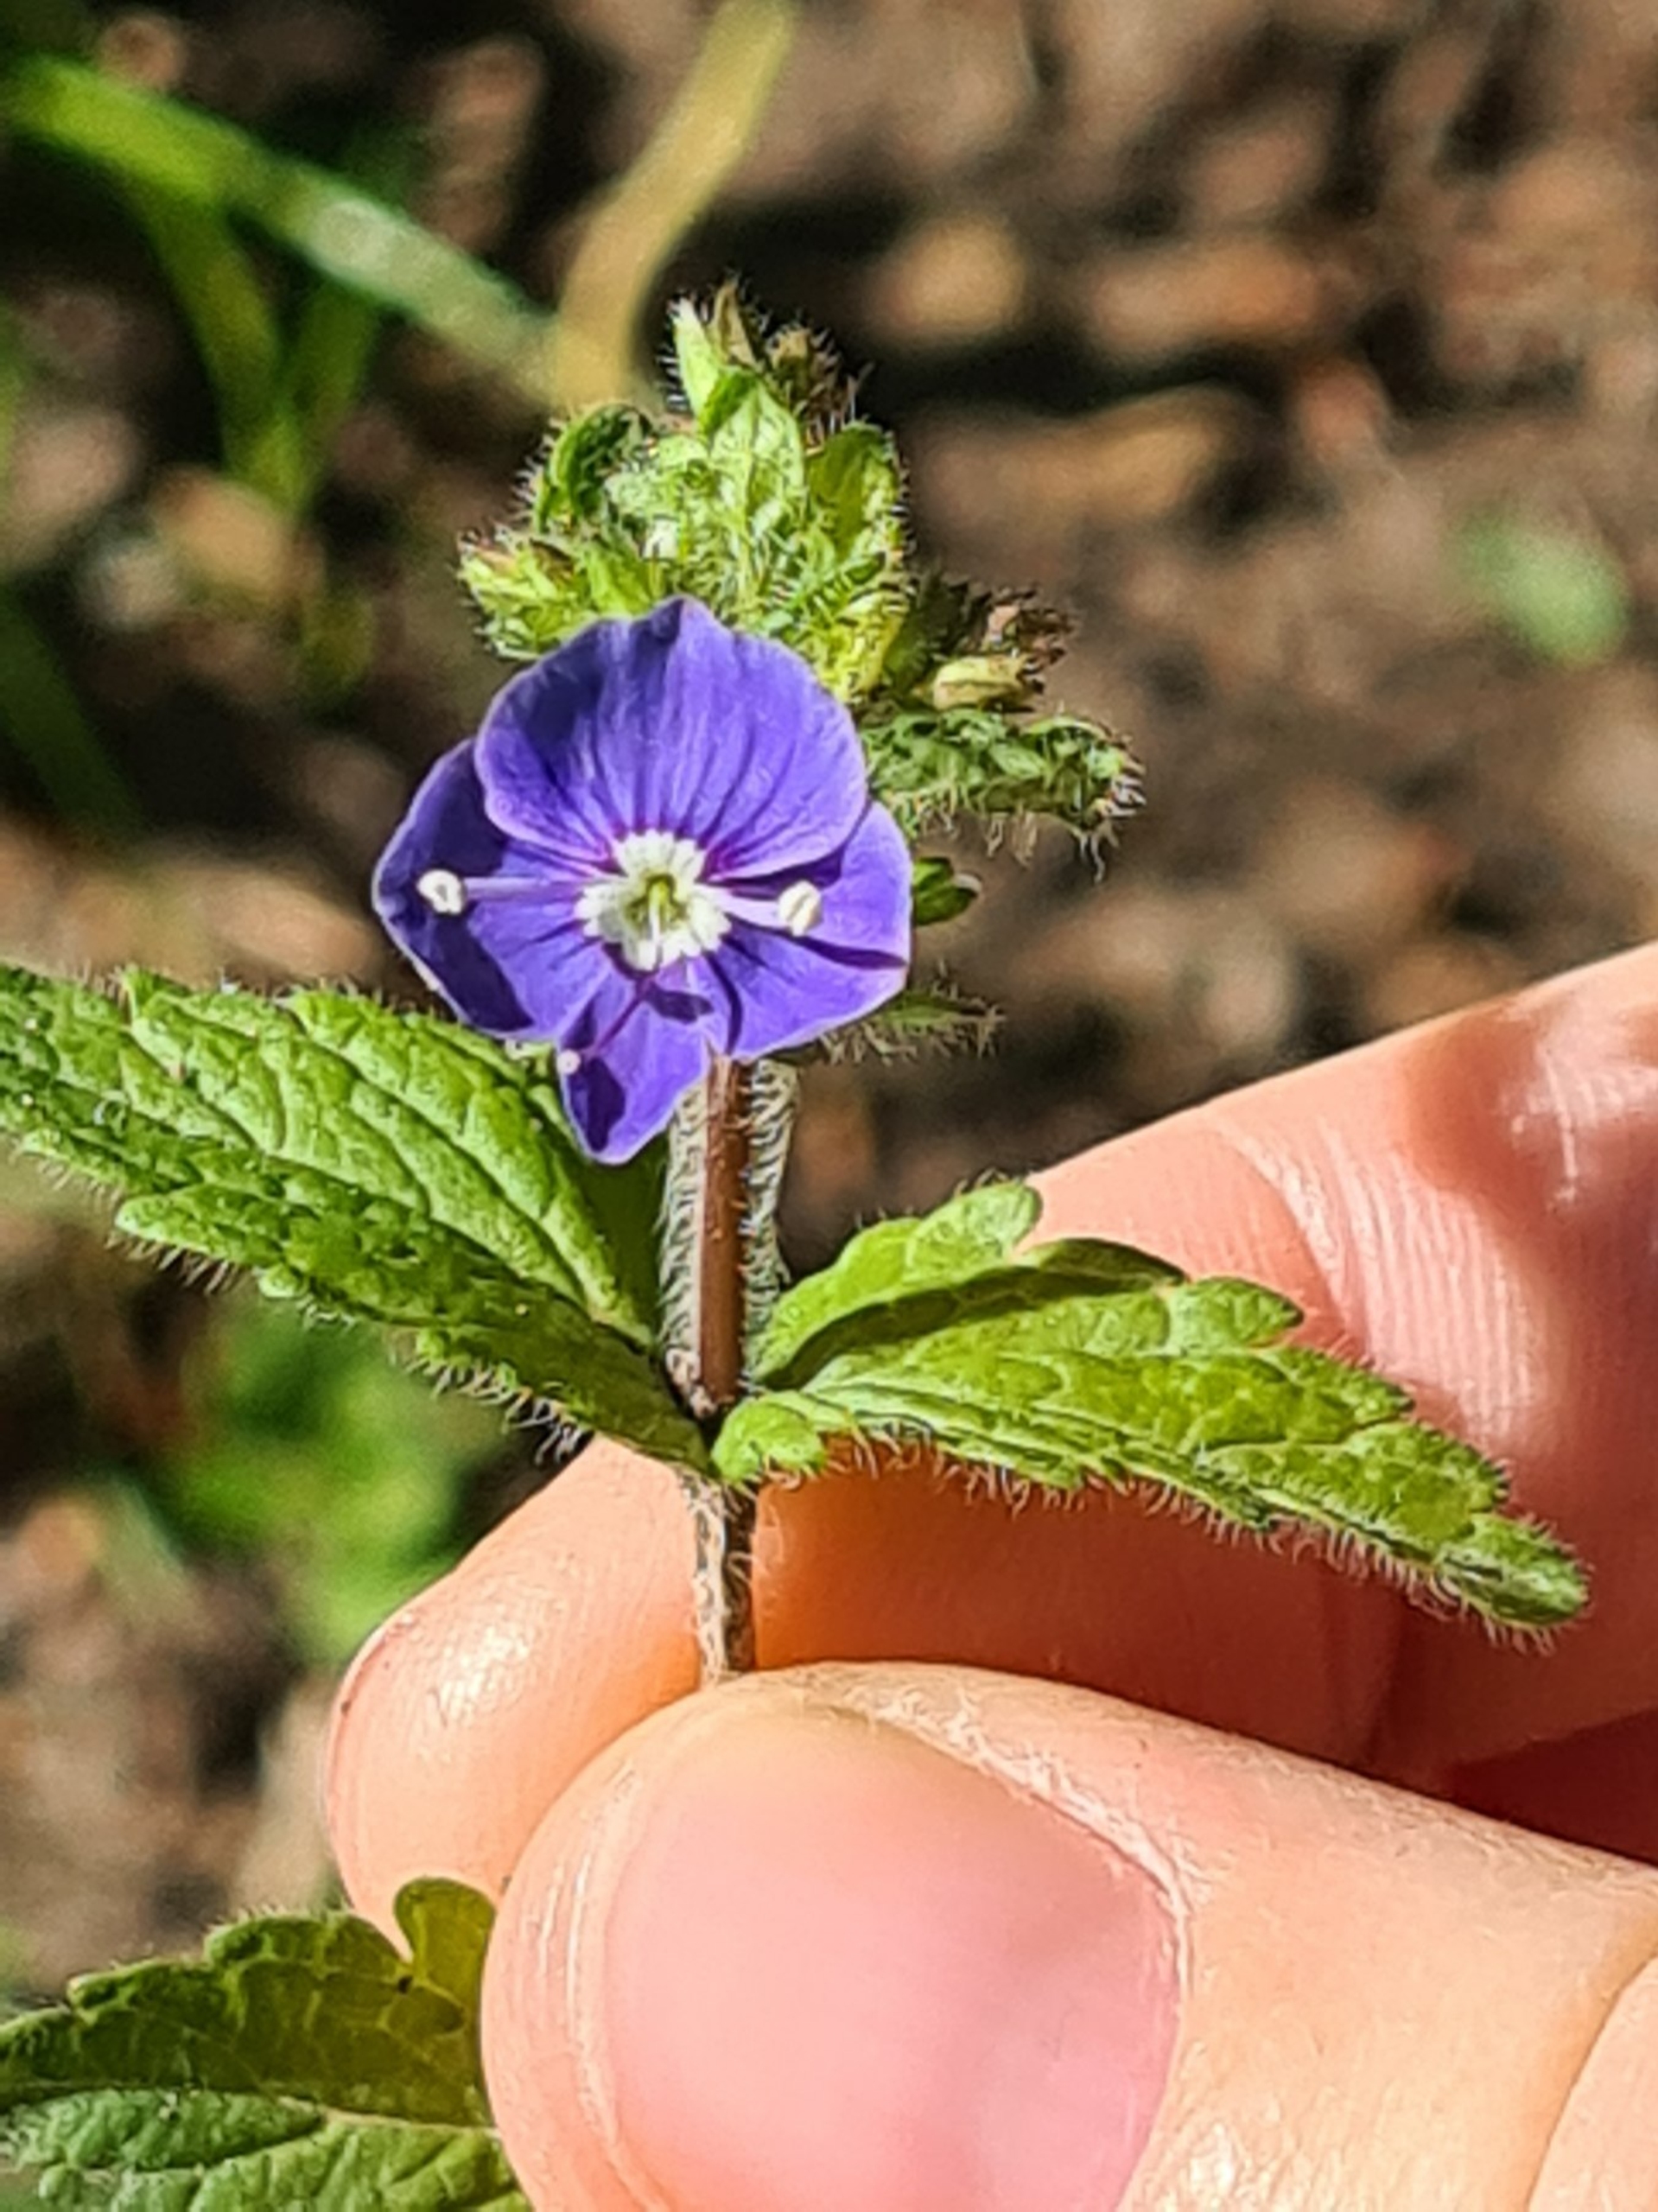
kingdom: Plantae
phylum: Tracheophyta
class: Magnoliopsida
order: Lamiales
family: Plantaginaceae
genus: Veronica
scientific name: Veronica chamaedrys
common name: Tveskægget ærenpris
